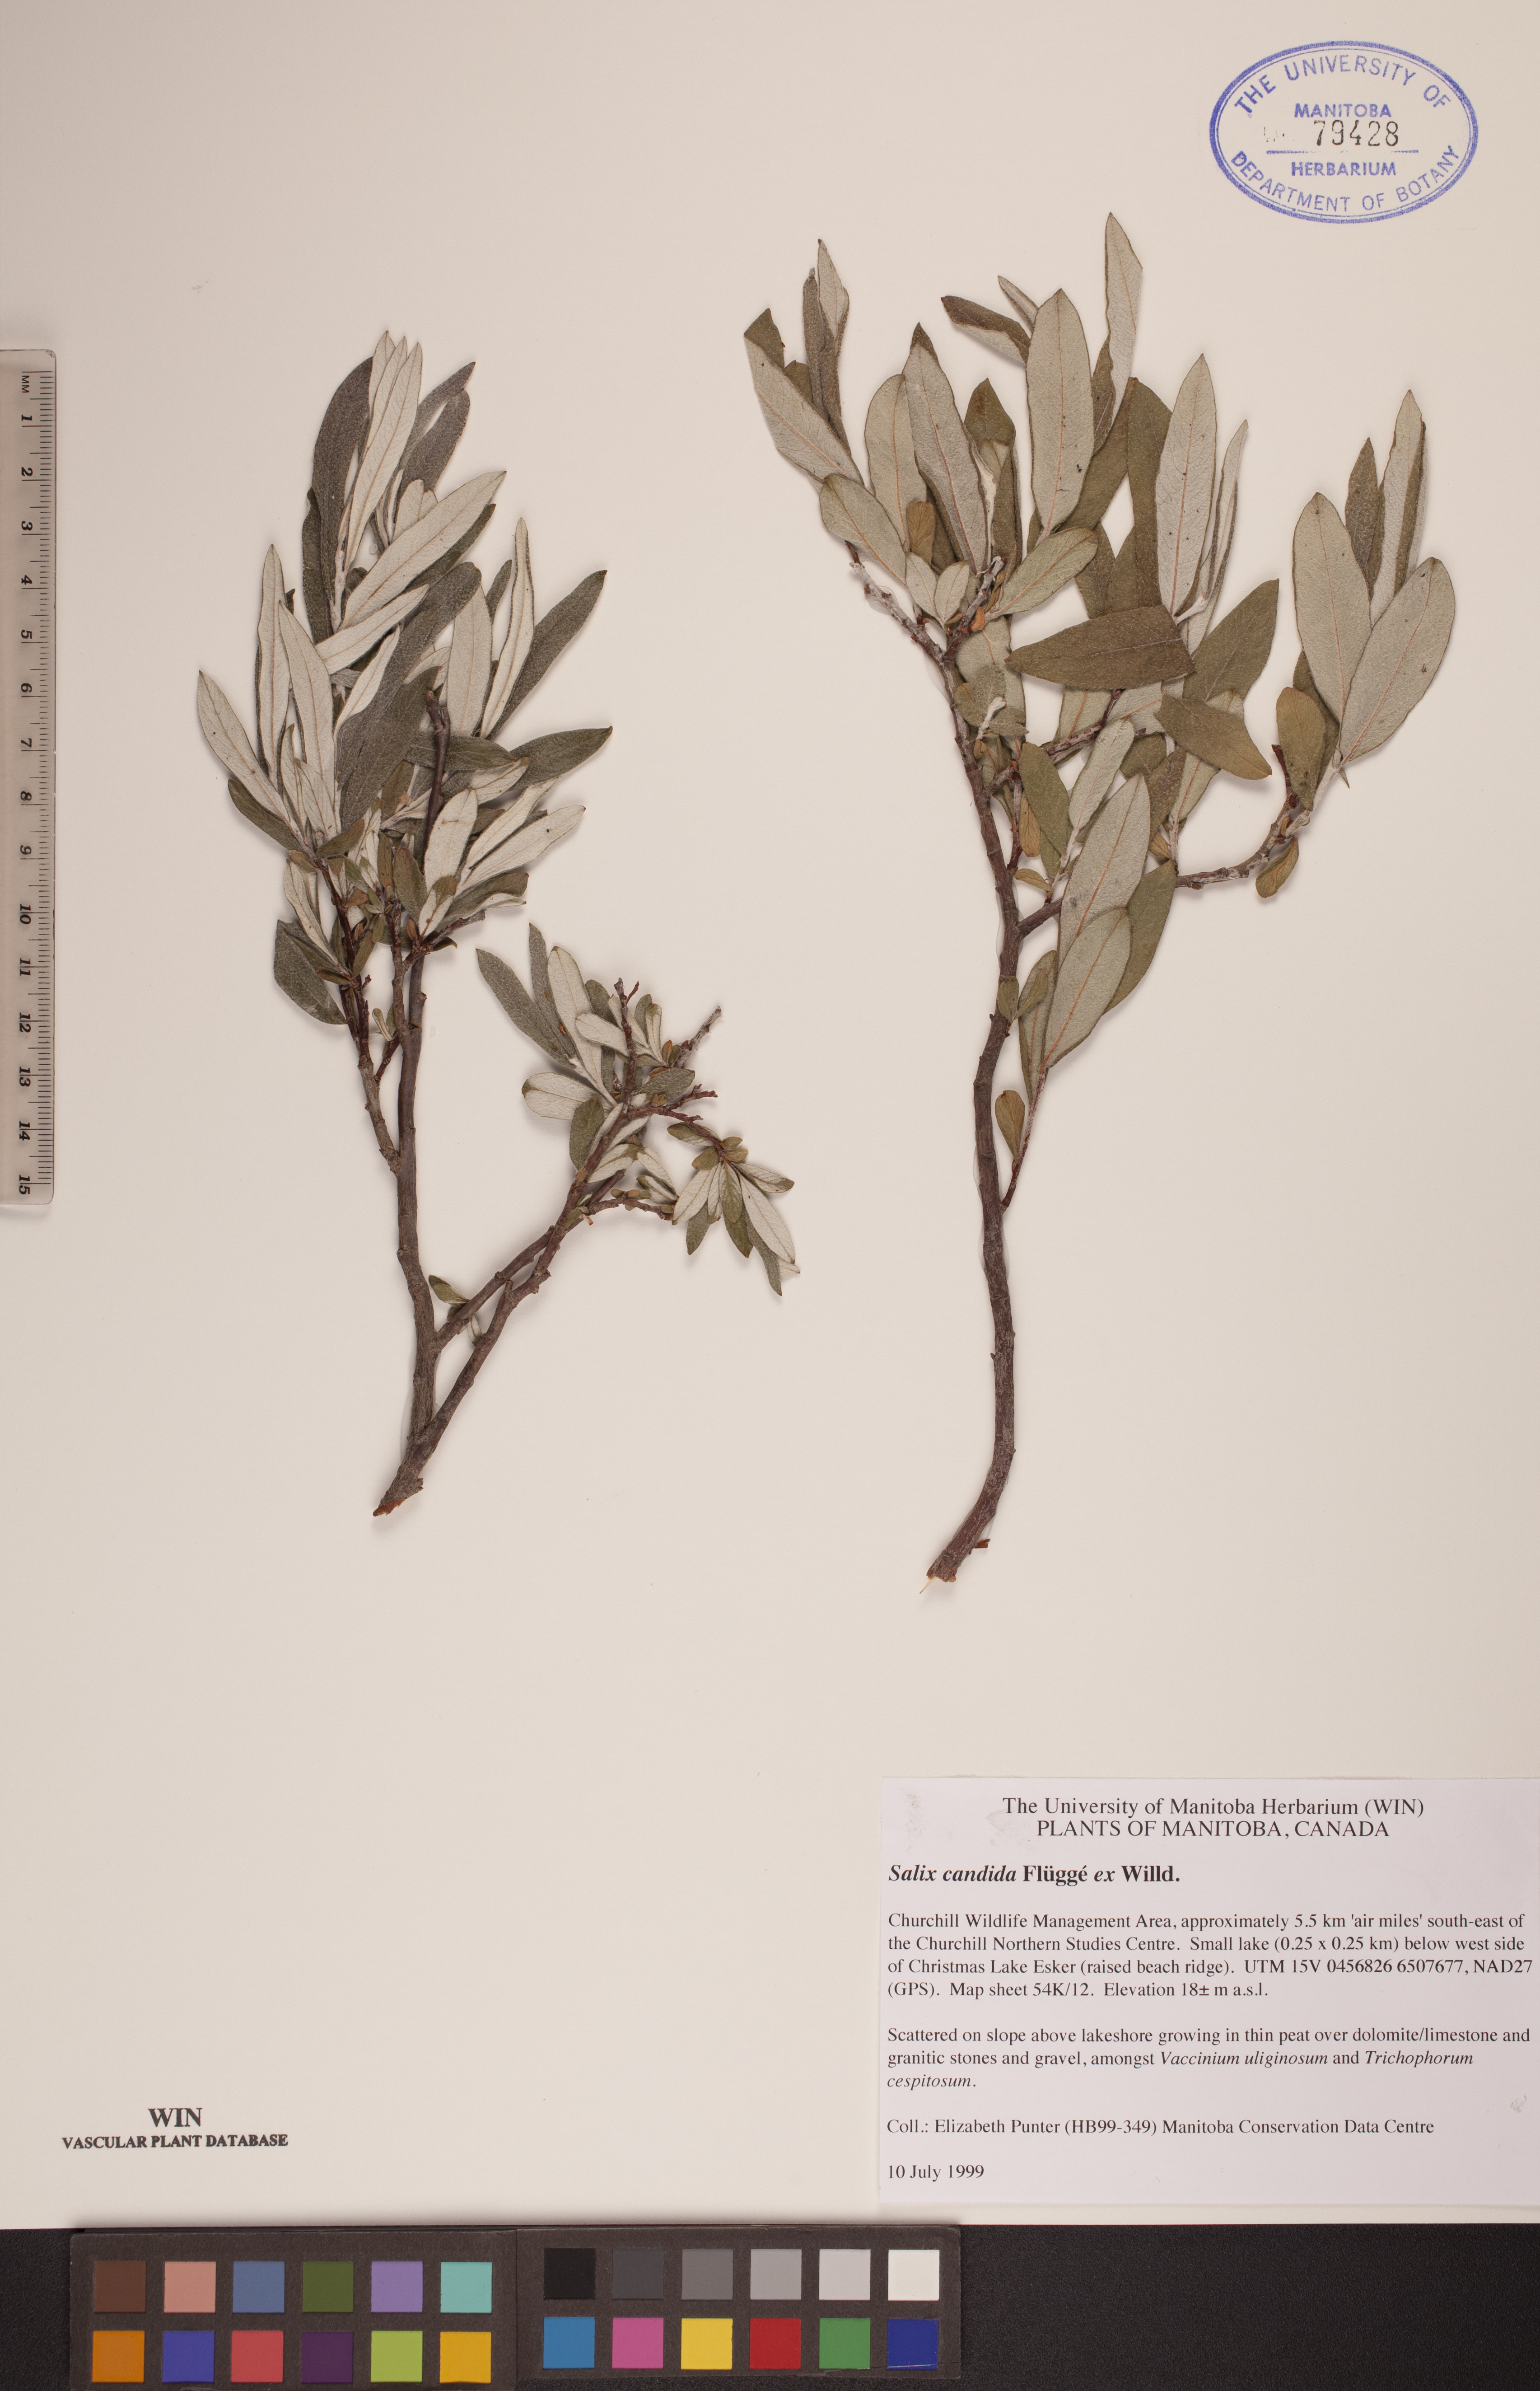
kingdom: Plantae
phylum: Tracheophyta
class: Magnoliopsida
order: Malpighiales
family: Salicaceae
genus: Salix
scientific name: Salix candida
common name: Hoary willow
